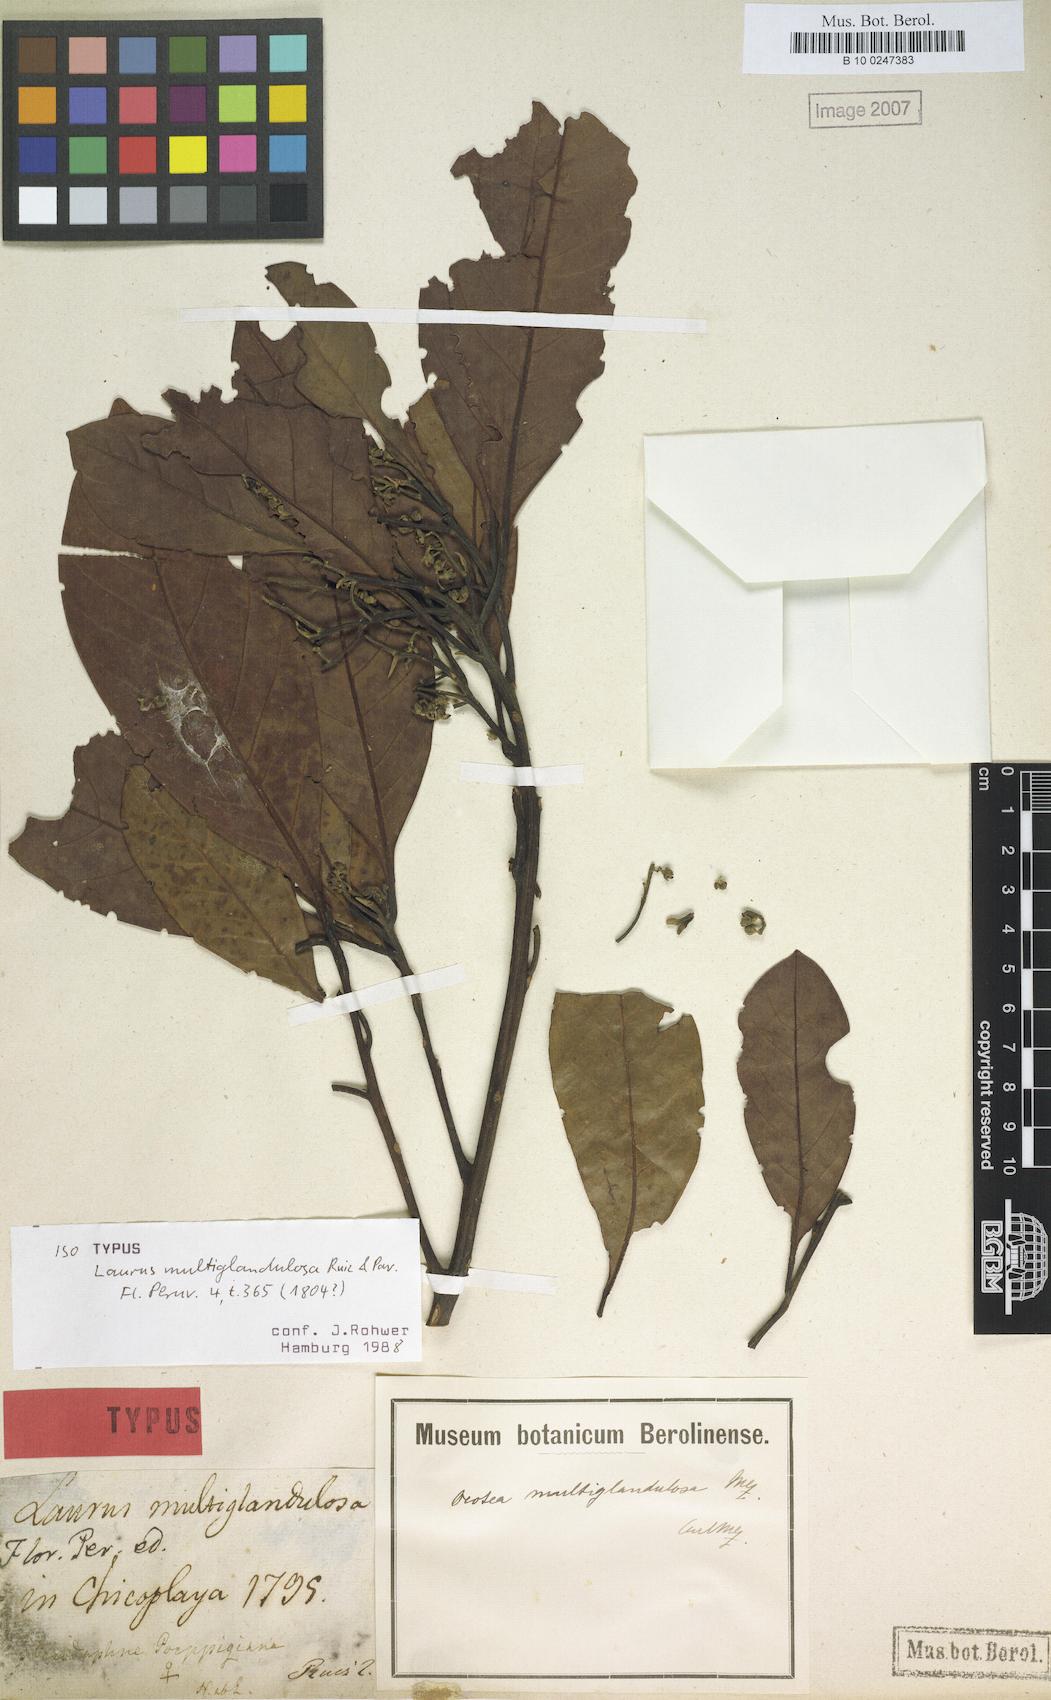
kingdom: Plantae
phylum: Tracheophyta
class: Magnoliopsida
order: Laurales
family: Lauraceae
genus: Ocotea
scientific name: Ocotea floribunda
